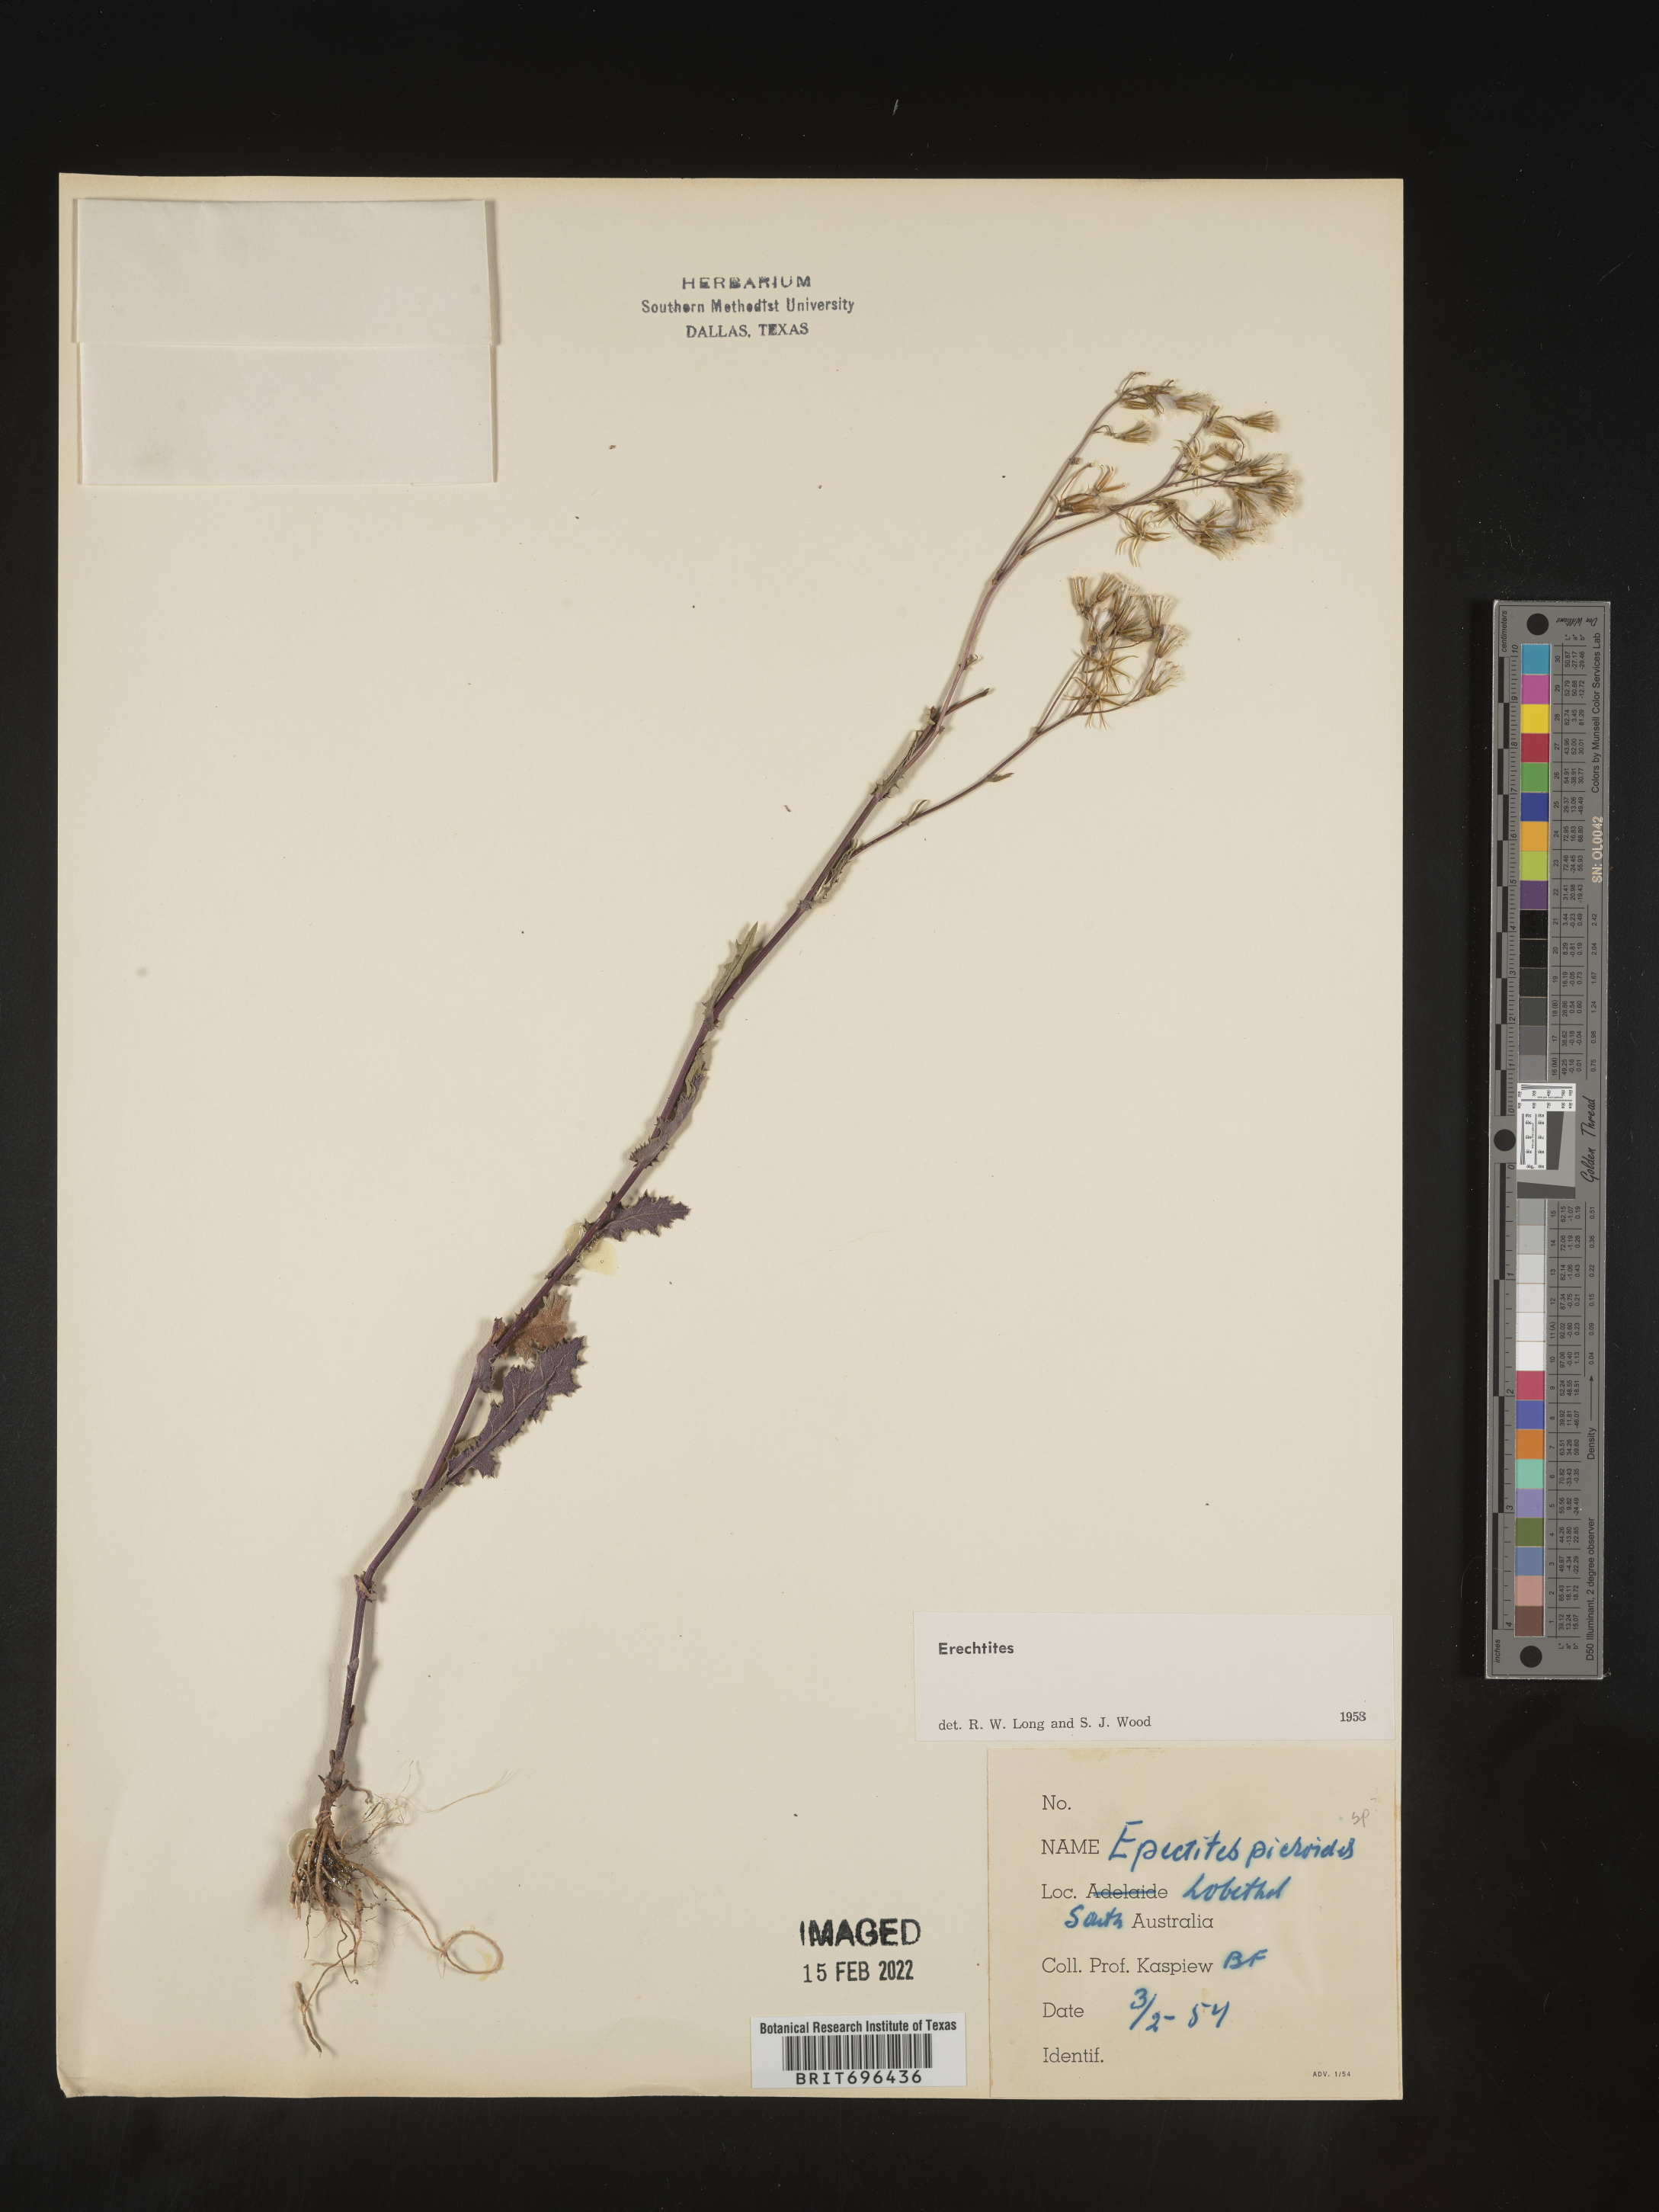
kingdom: Plantae
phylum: Tracheophyta
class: Magnoliopsida
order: Asterales
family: Asteraceae
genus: Erechtites
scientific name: Erechtites
